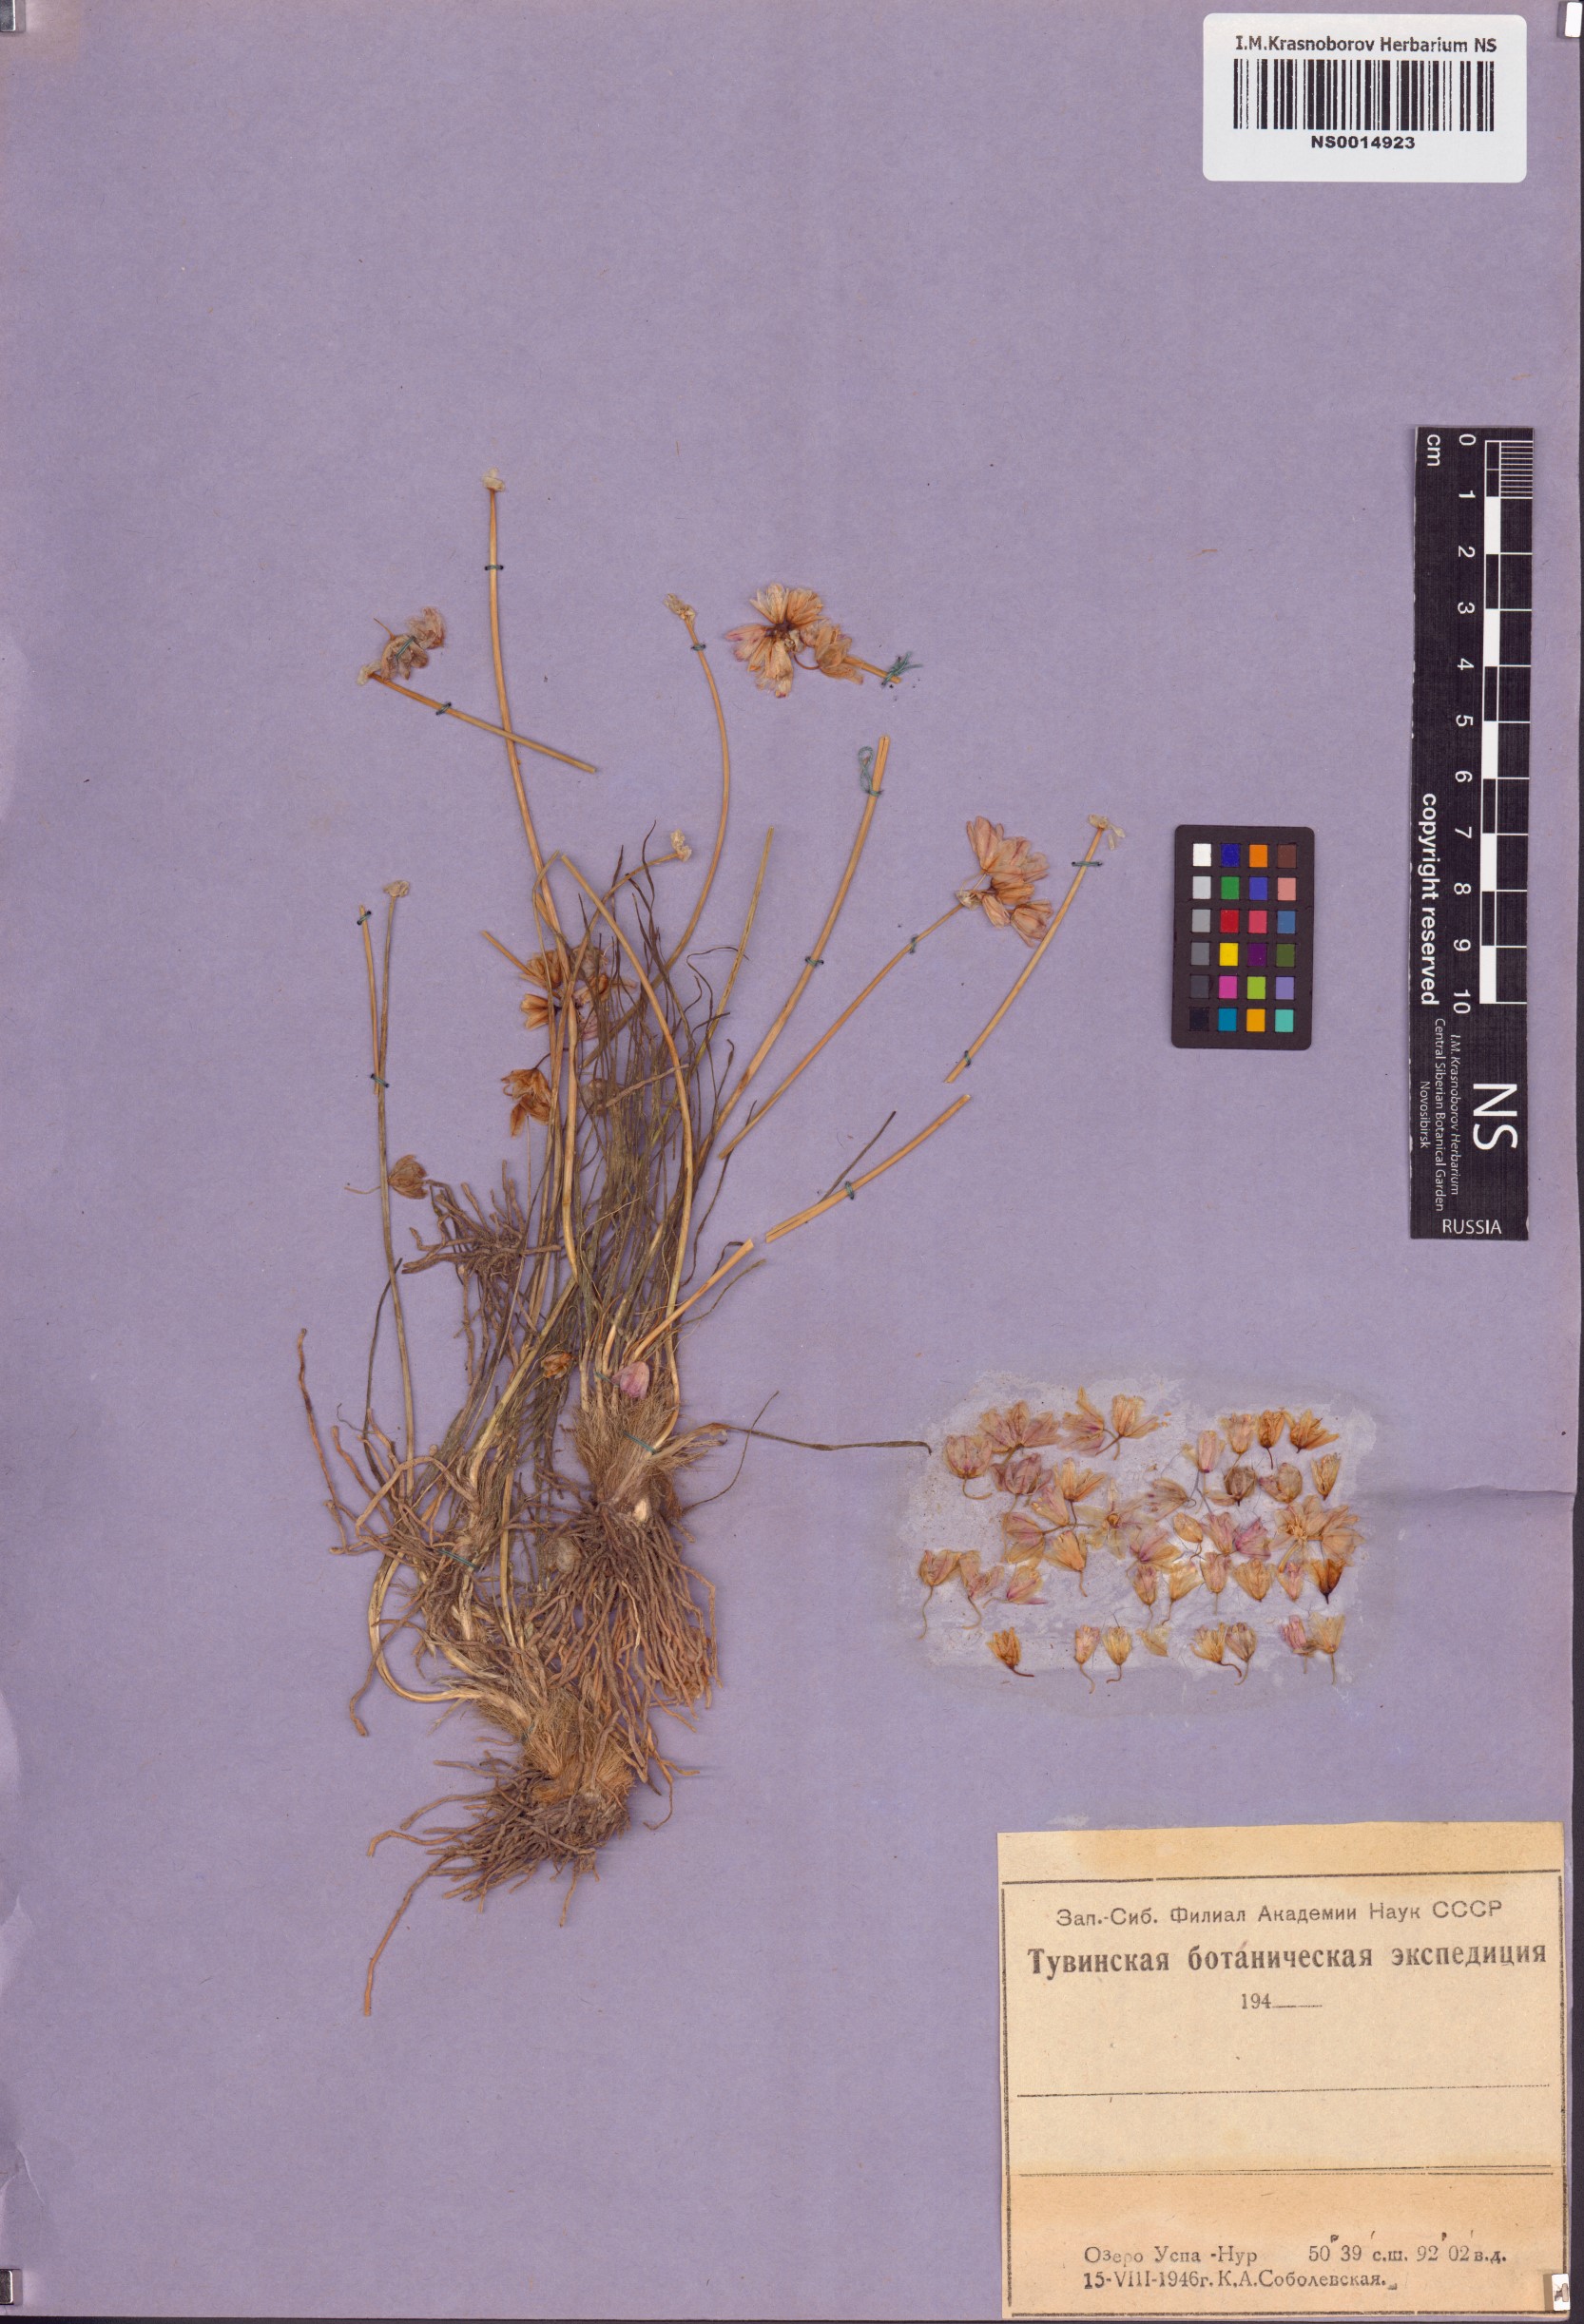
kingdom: Plantae
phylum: Tracheophyta
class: Liliopsida
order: Asparagales
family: Amaryllidaceae
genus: Allium
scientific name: Allium mongolicum
